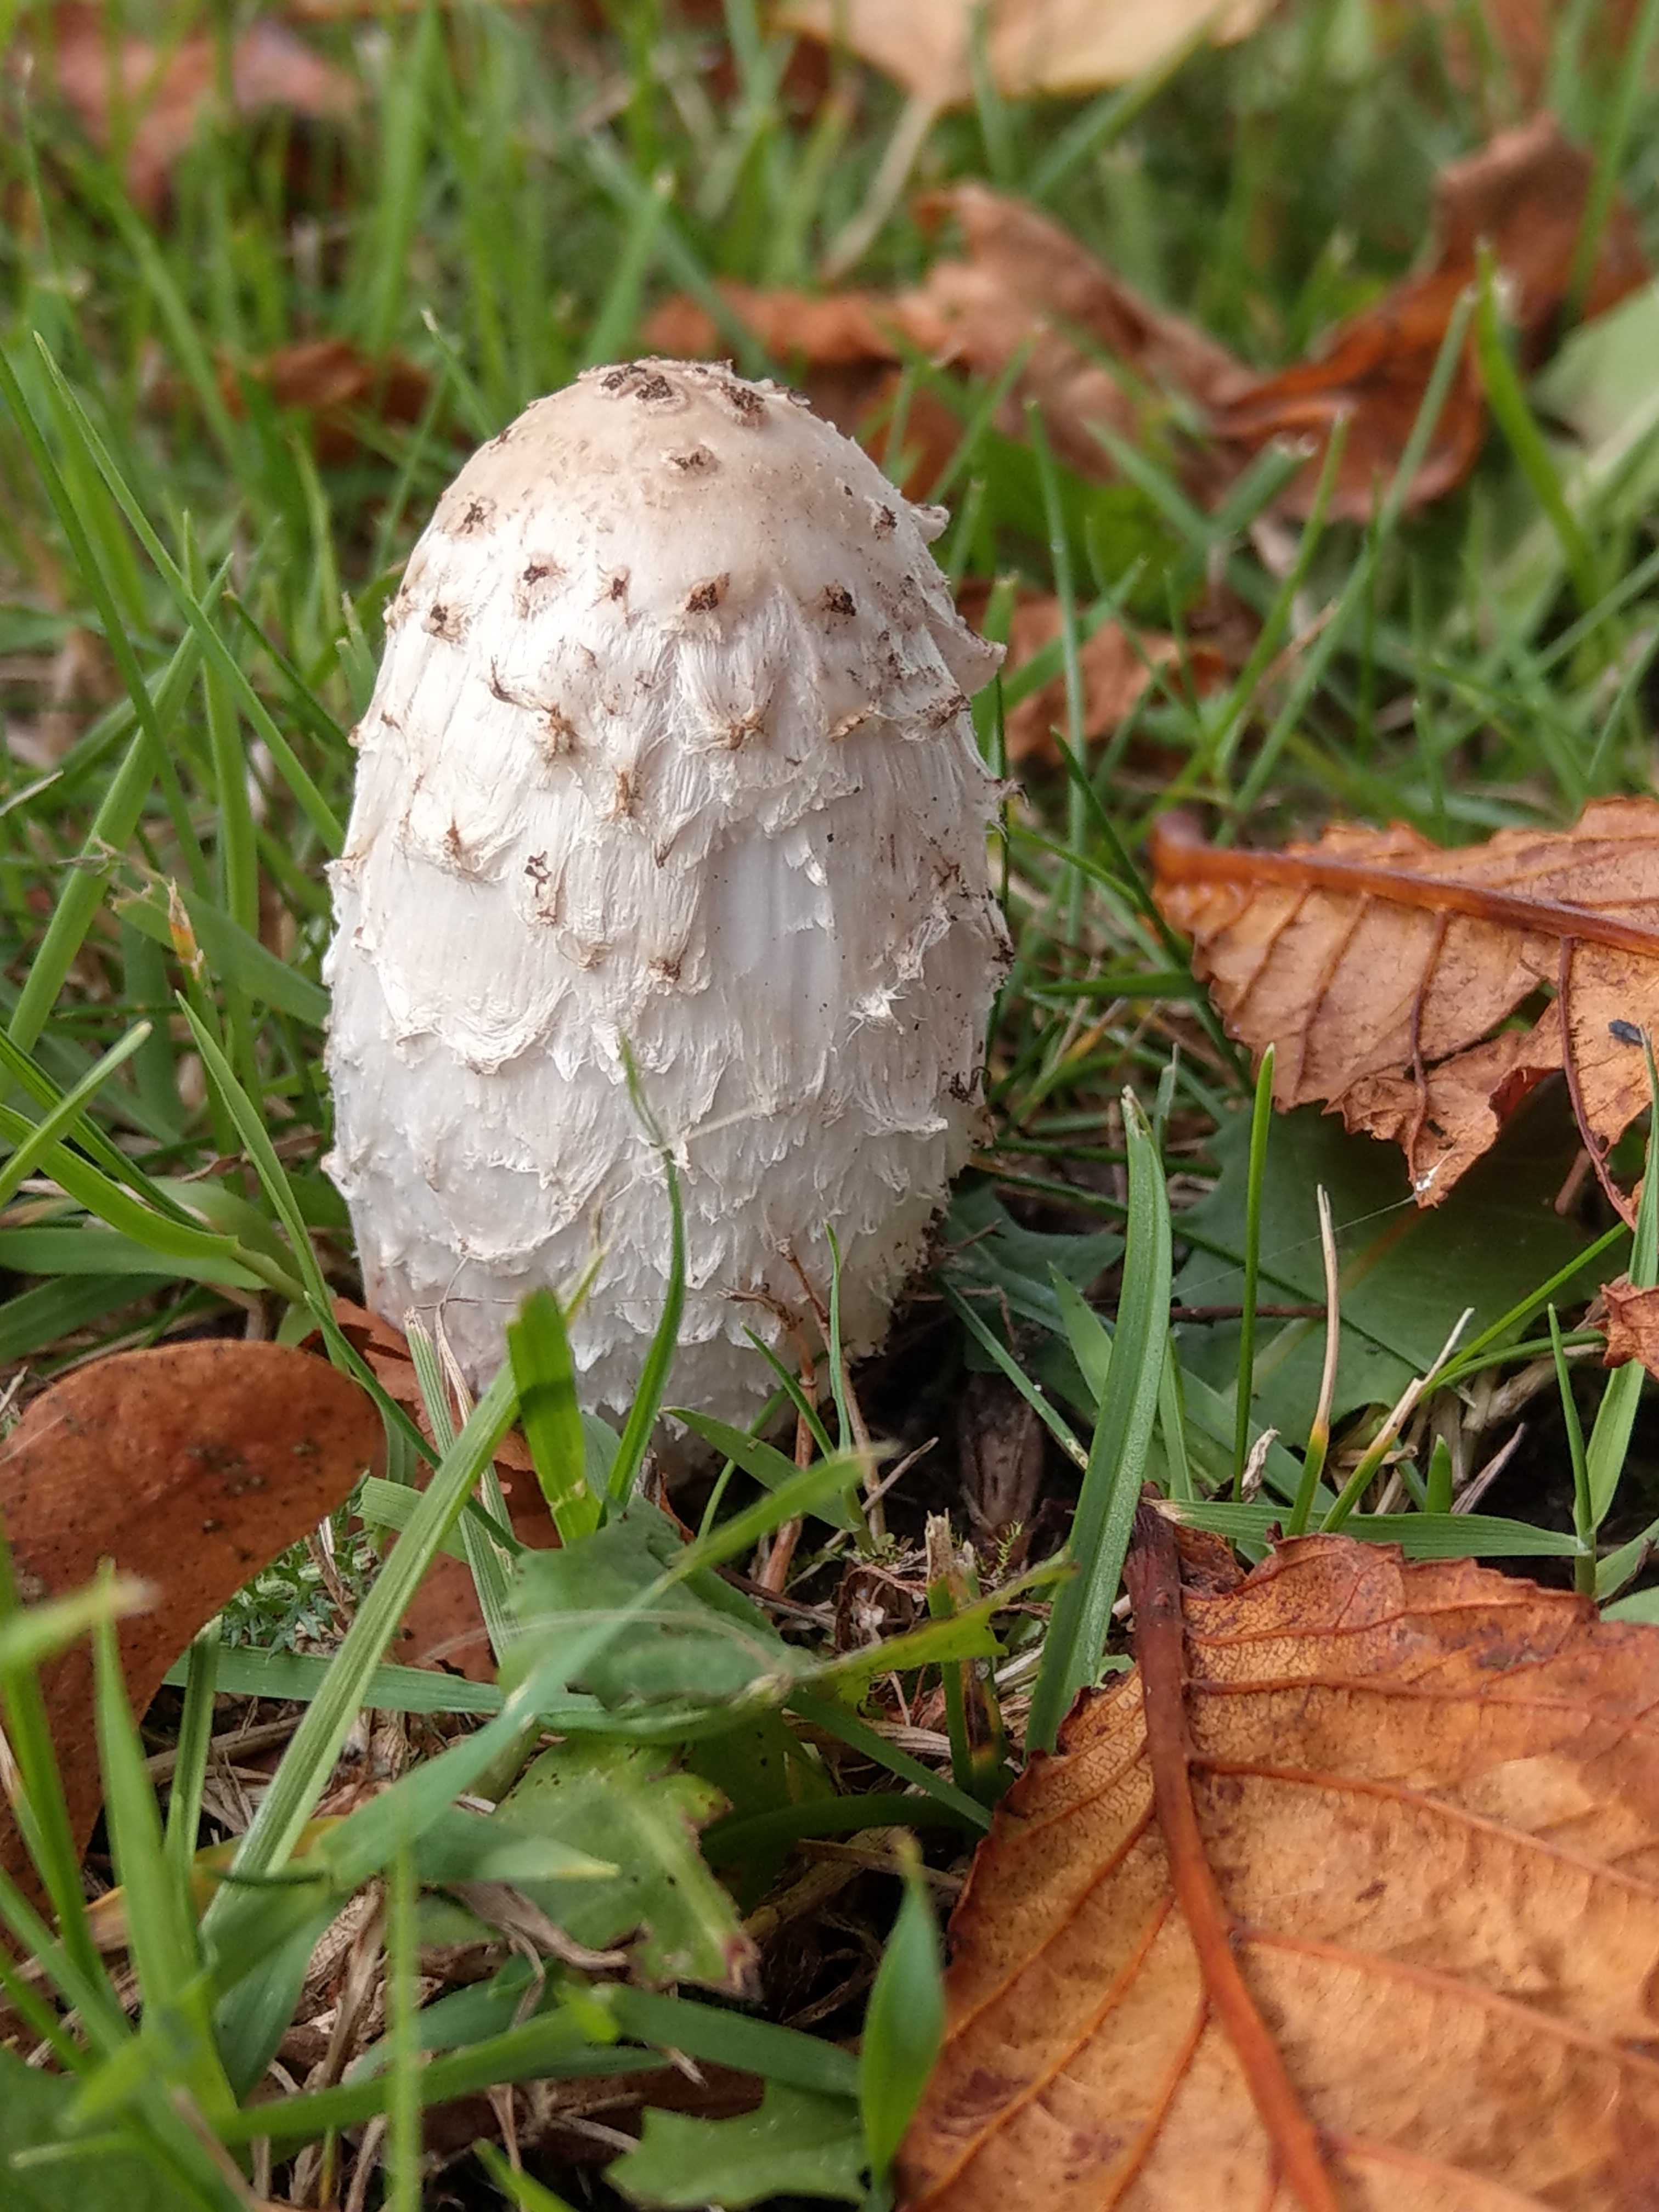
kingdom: Fungi
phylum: Basidiomycota
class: Agaricomycetes
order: Agaricales
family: Agaricaceae
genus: Coprinus
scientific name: Coprinus comatus
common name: stor parykhat
